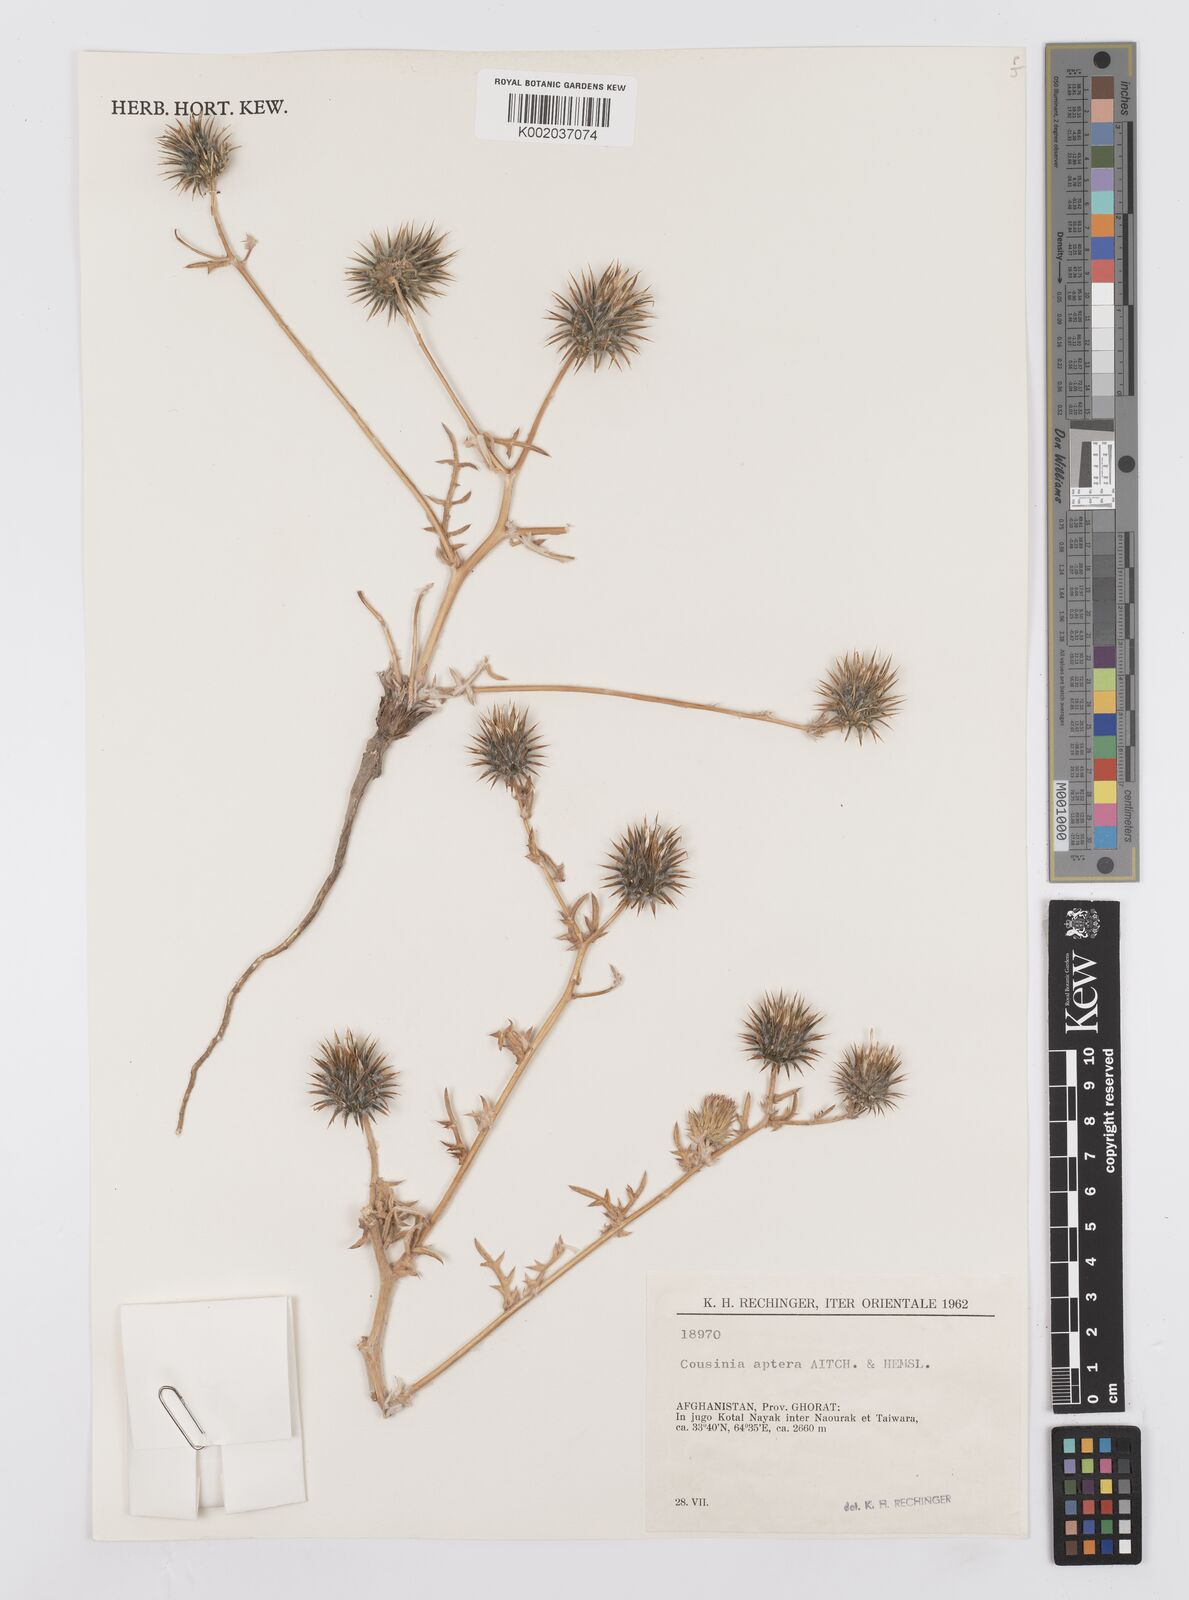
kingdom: Plantae
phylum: Tracheophyta
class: Magnoliopsida
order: Asterales
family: Asteraceae
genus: Cousinia
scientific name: Cousinia aptera
